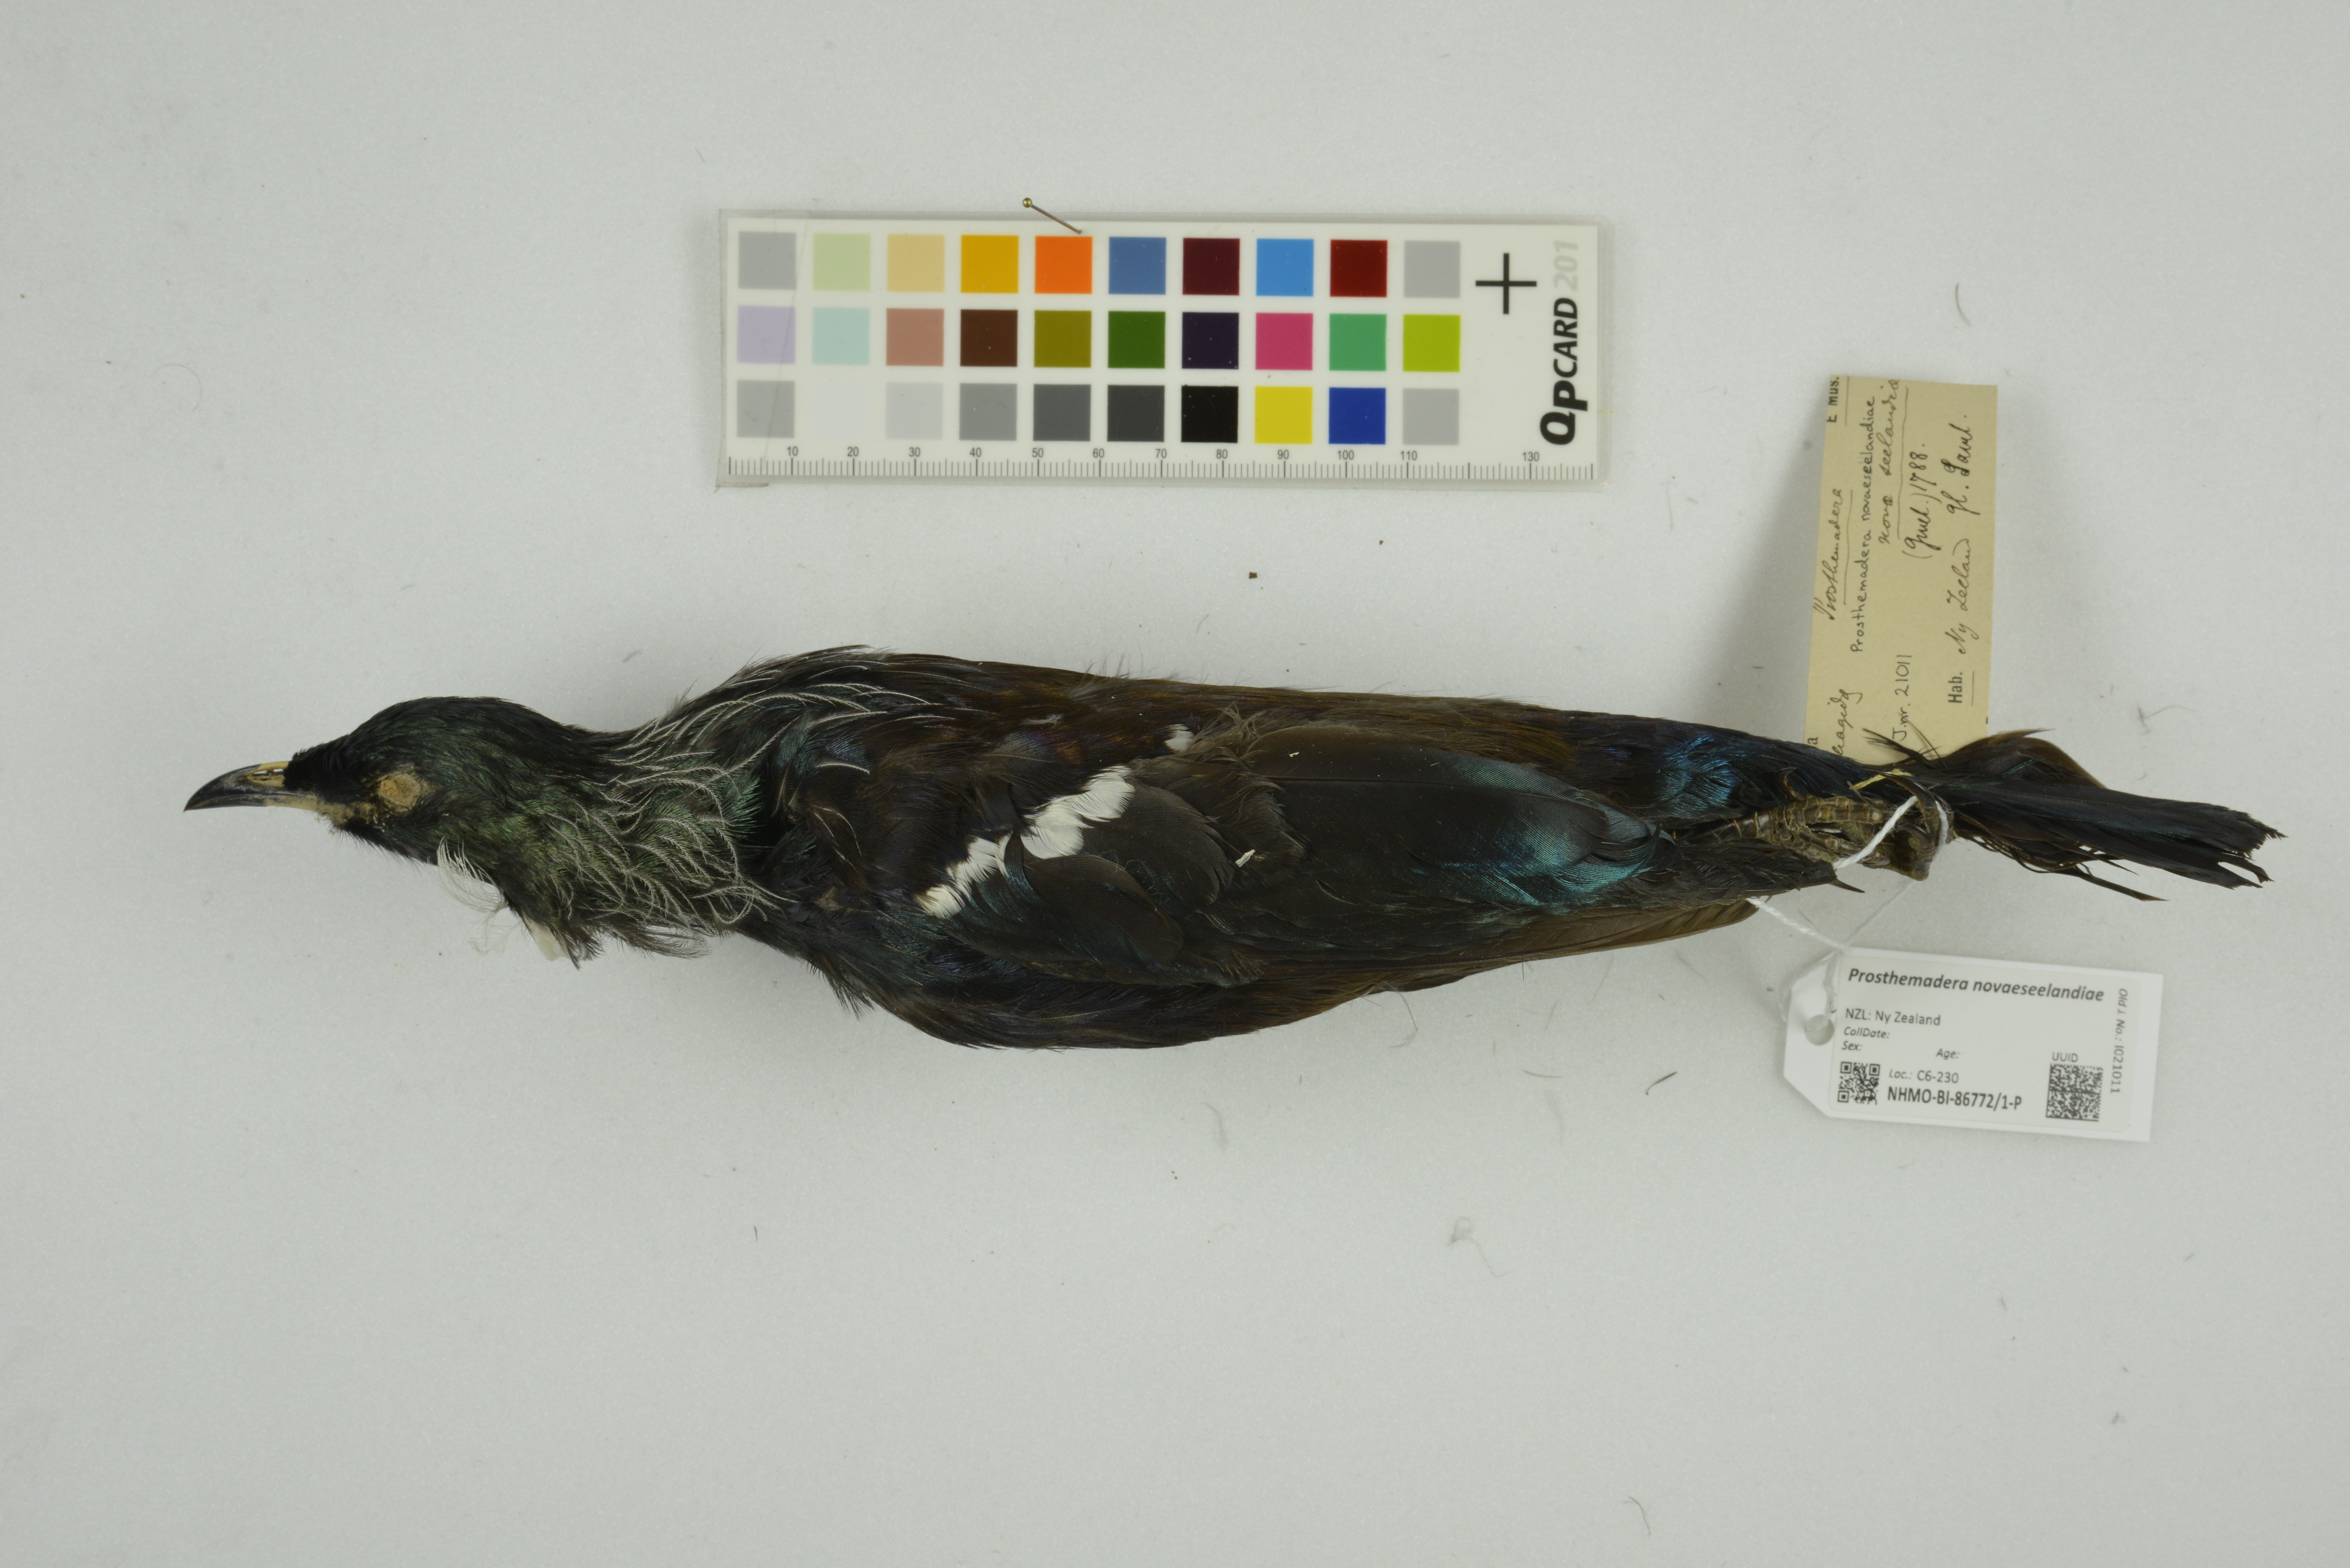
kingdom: Animalia
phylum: Chordata
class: Aves
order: Passeriformes
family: Meliphagidae
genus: Prosthemadera
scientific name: Prosthemadera novaeseelandiae
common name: Tui
